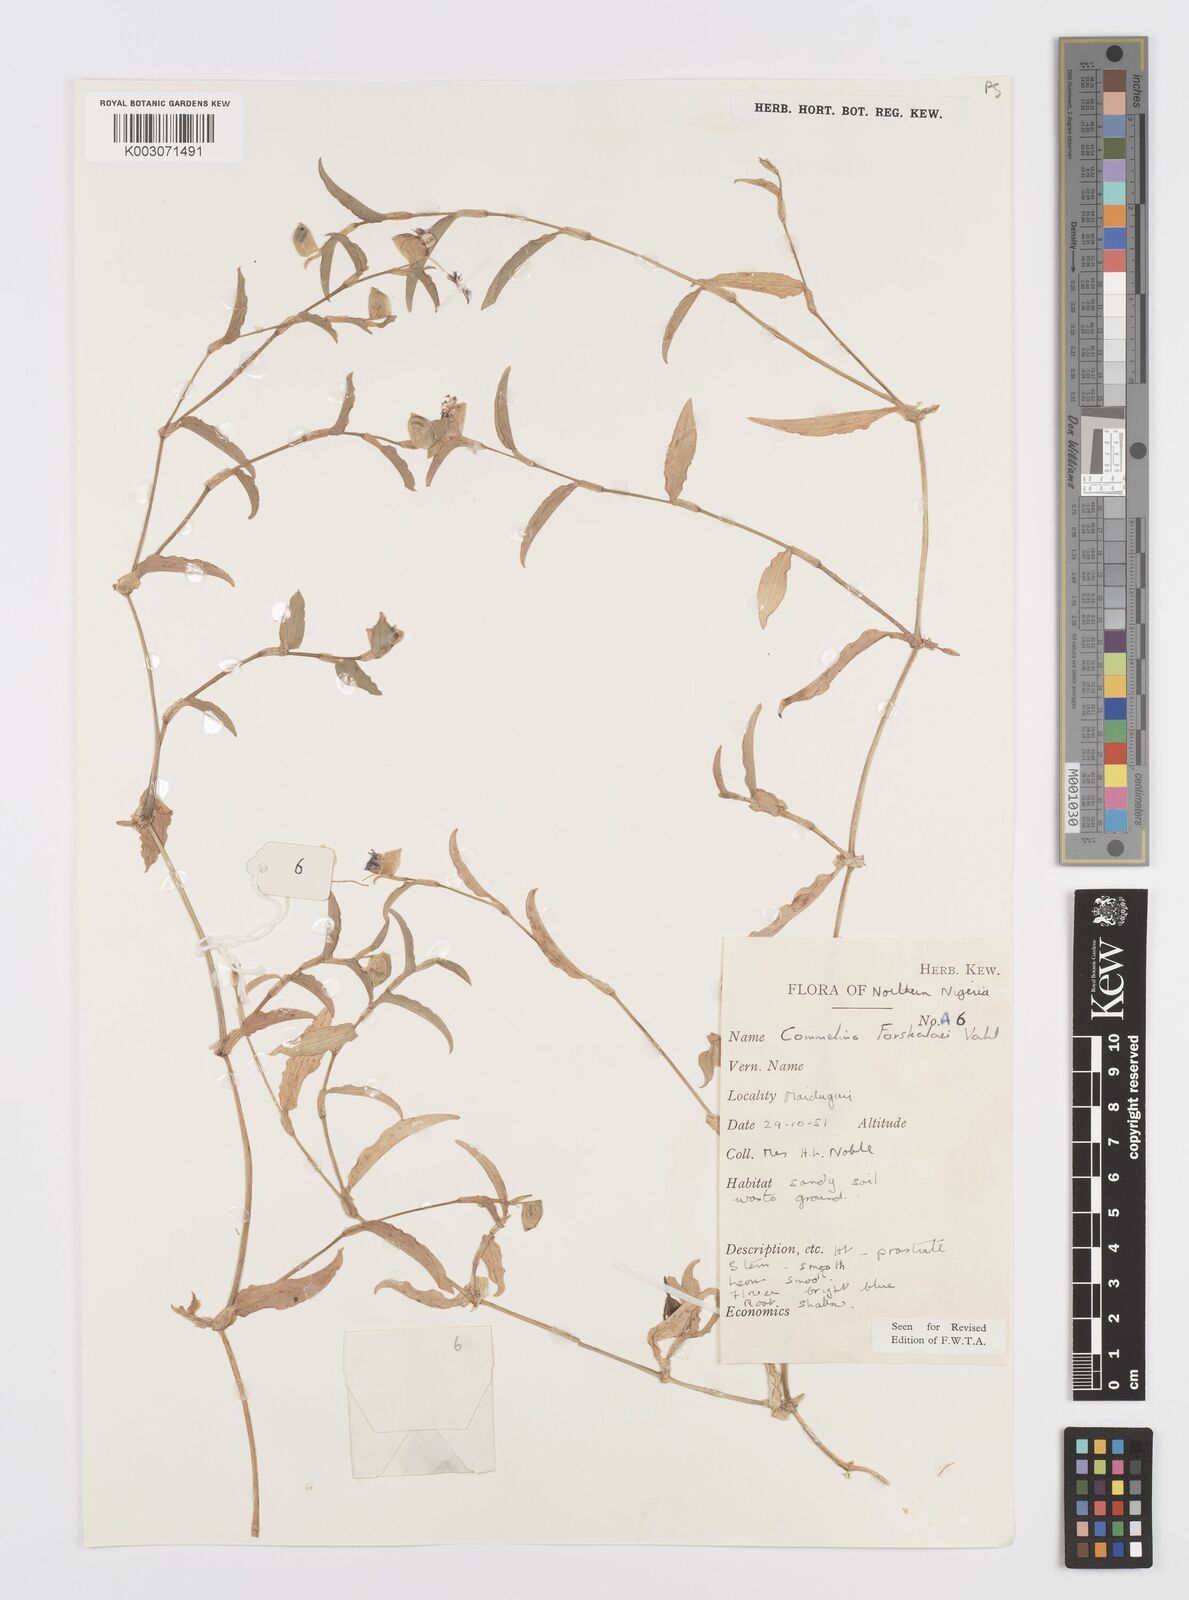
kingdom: Plantae
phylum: Tracheophyta
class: Liliopsida
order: Commelinales
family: Commelinaceae
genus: Commelina
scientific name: Commelina forskaolii
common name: Rat's ear
